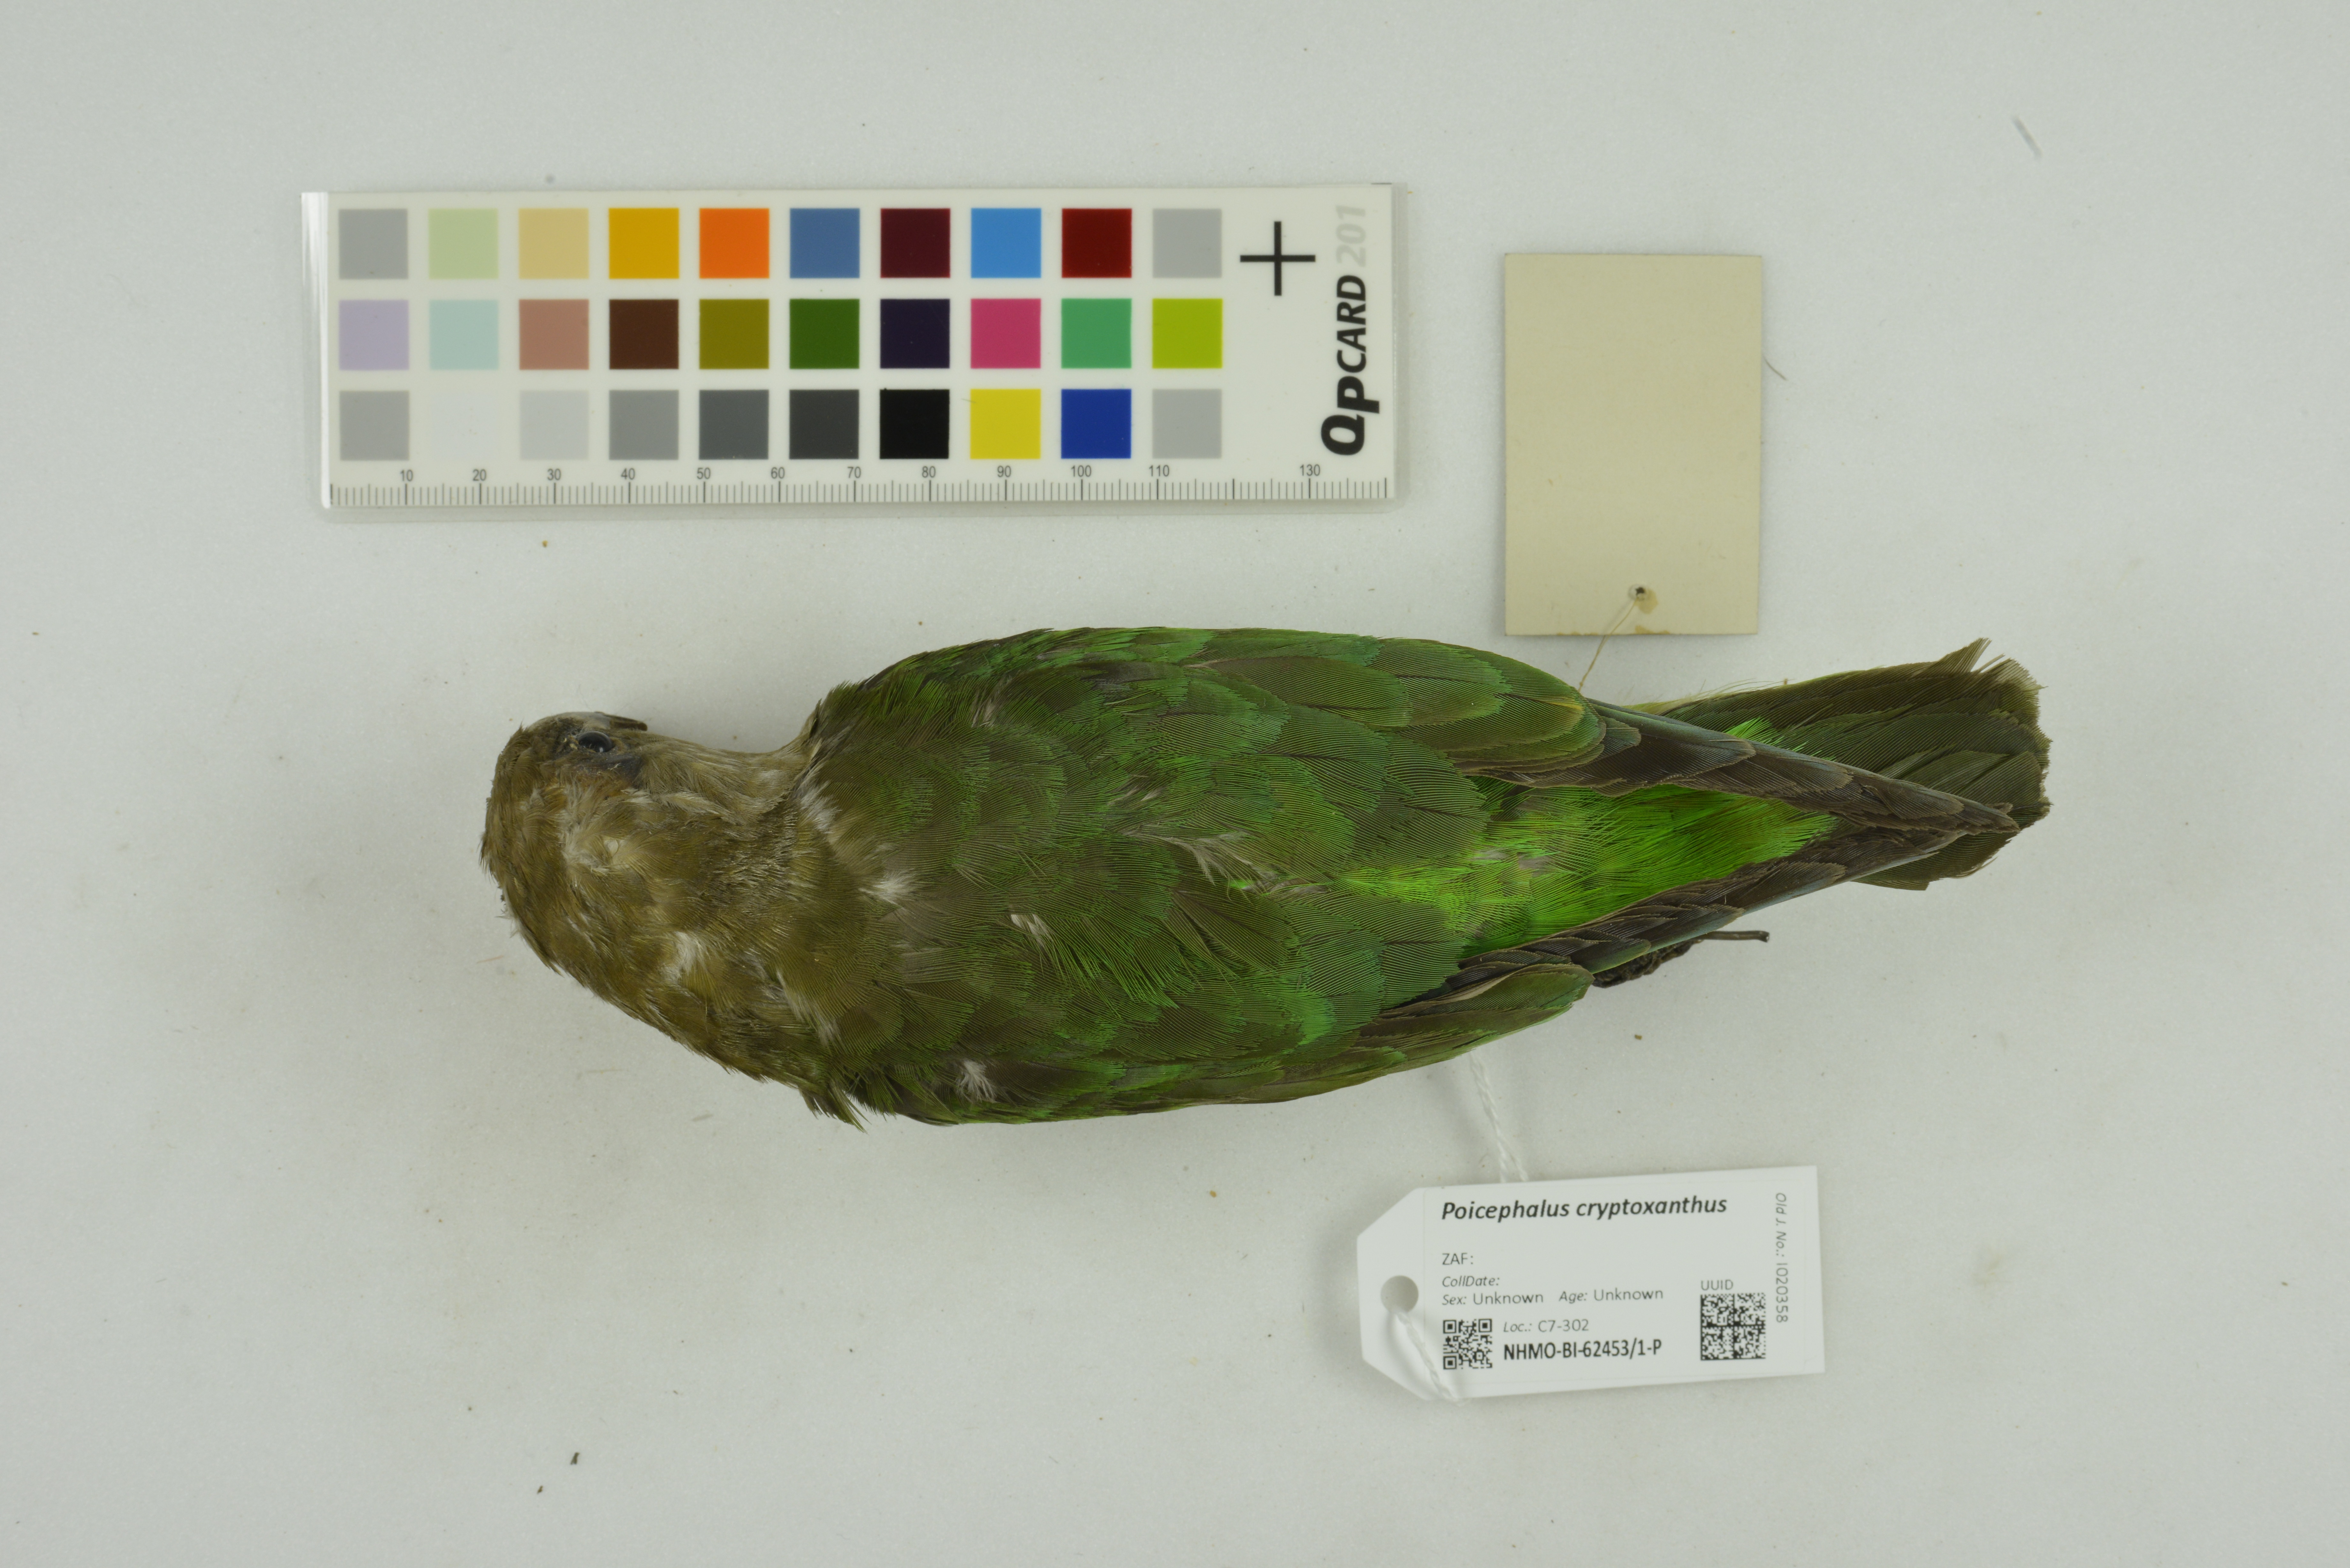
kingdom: Animalia
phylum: Chordata
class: Aves
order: Psittaciformes
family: Psittacidae
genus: Poicephalus
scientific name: Poicephalus cryptoxanthus
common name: Brown-headed parrot
